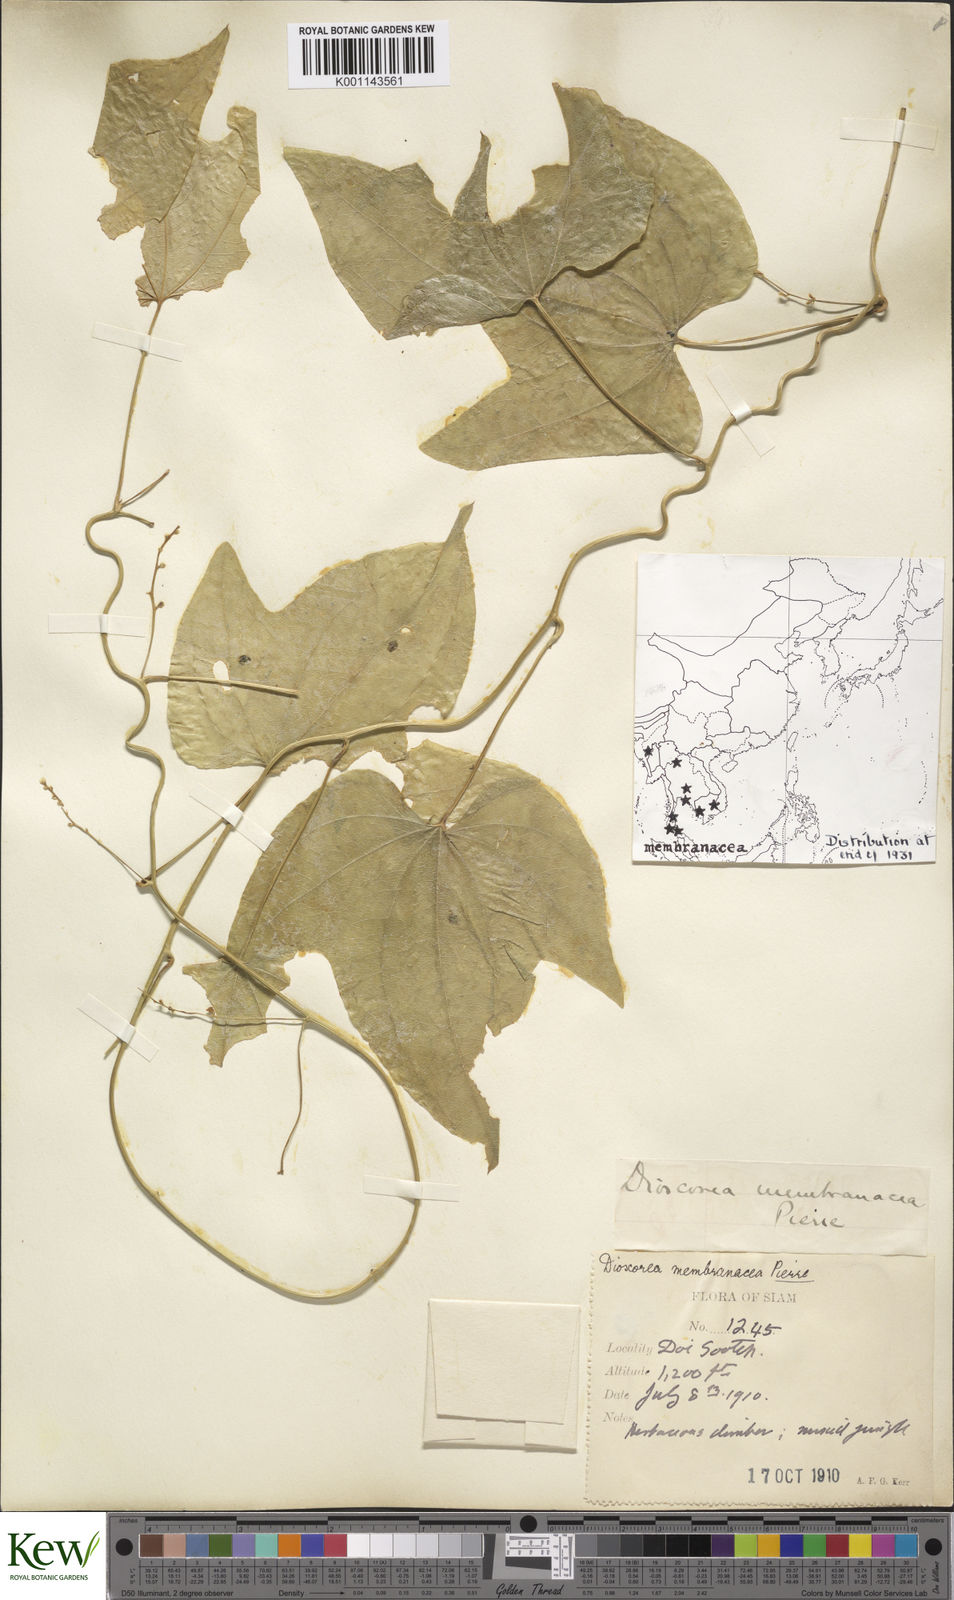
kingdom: Plantae
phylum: Tracheophyta
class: Liliopsida
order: Dioscoreales
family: Dioscoreaceae
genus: Dioscorea
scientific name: Dioscorea membranacea
